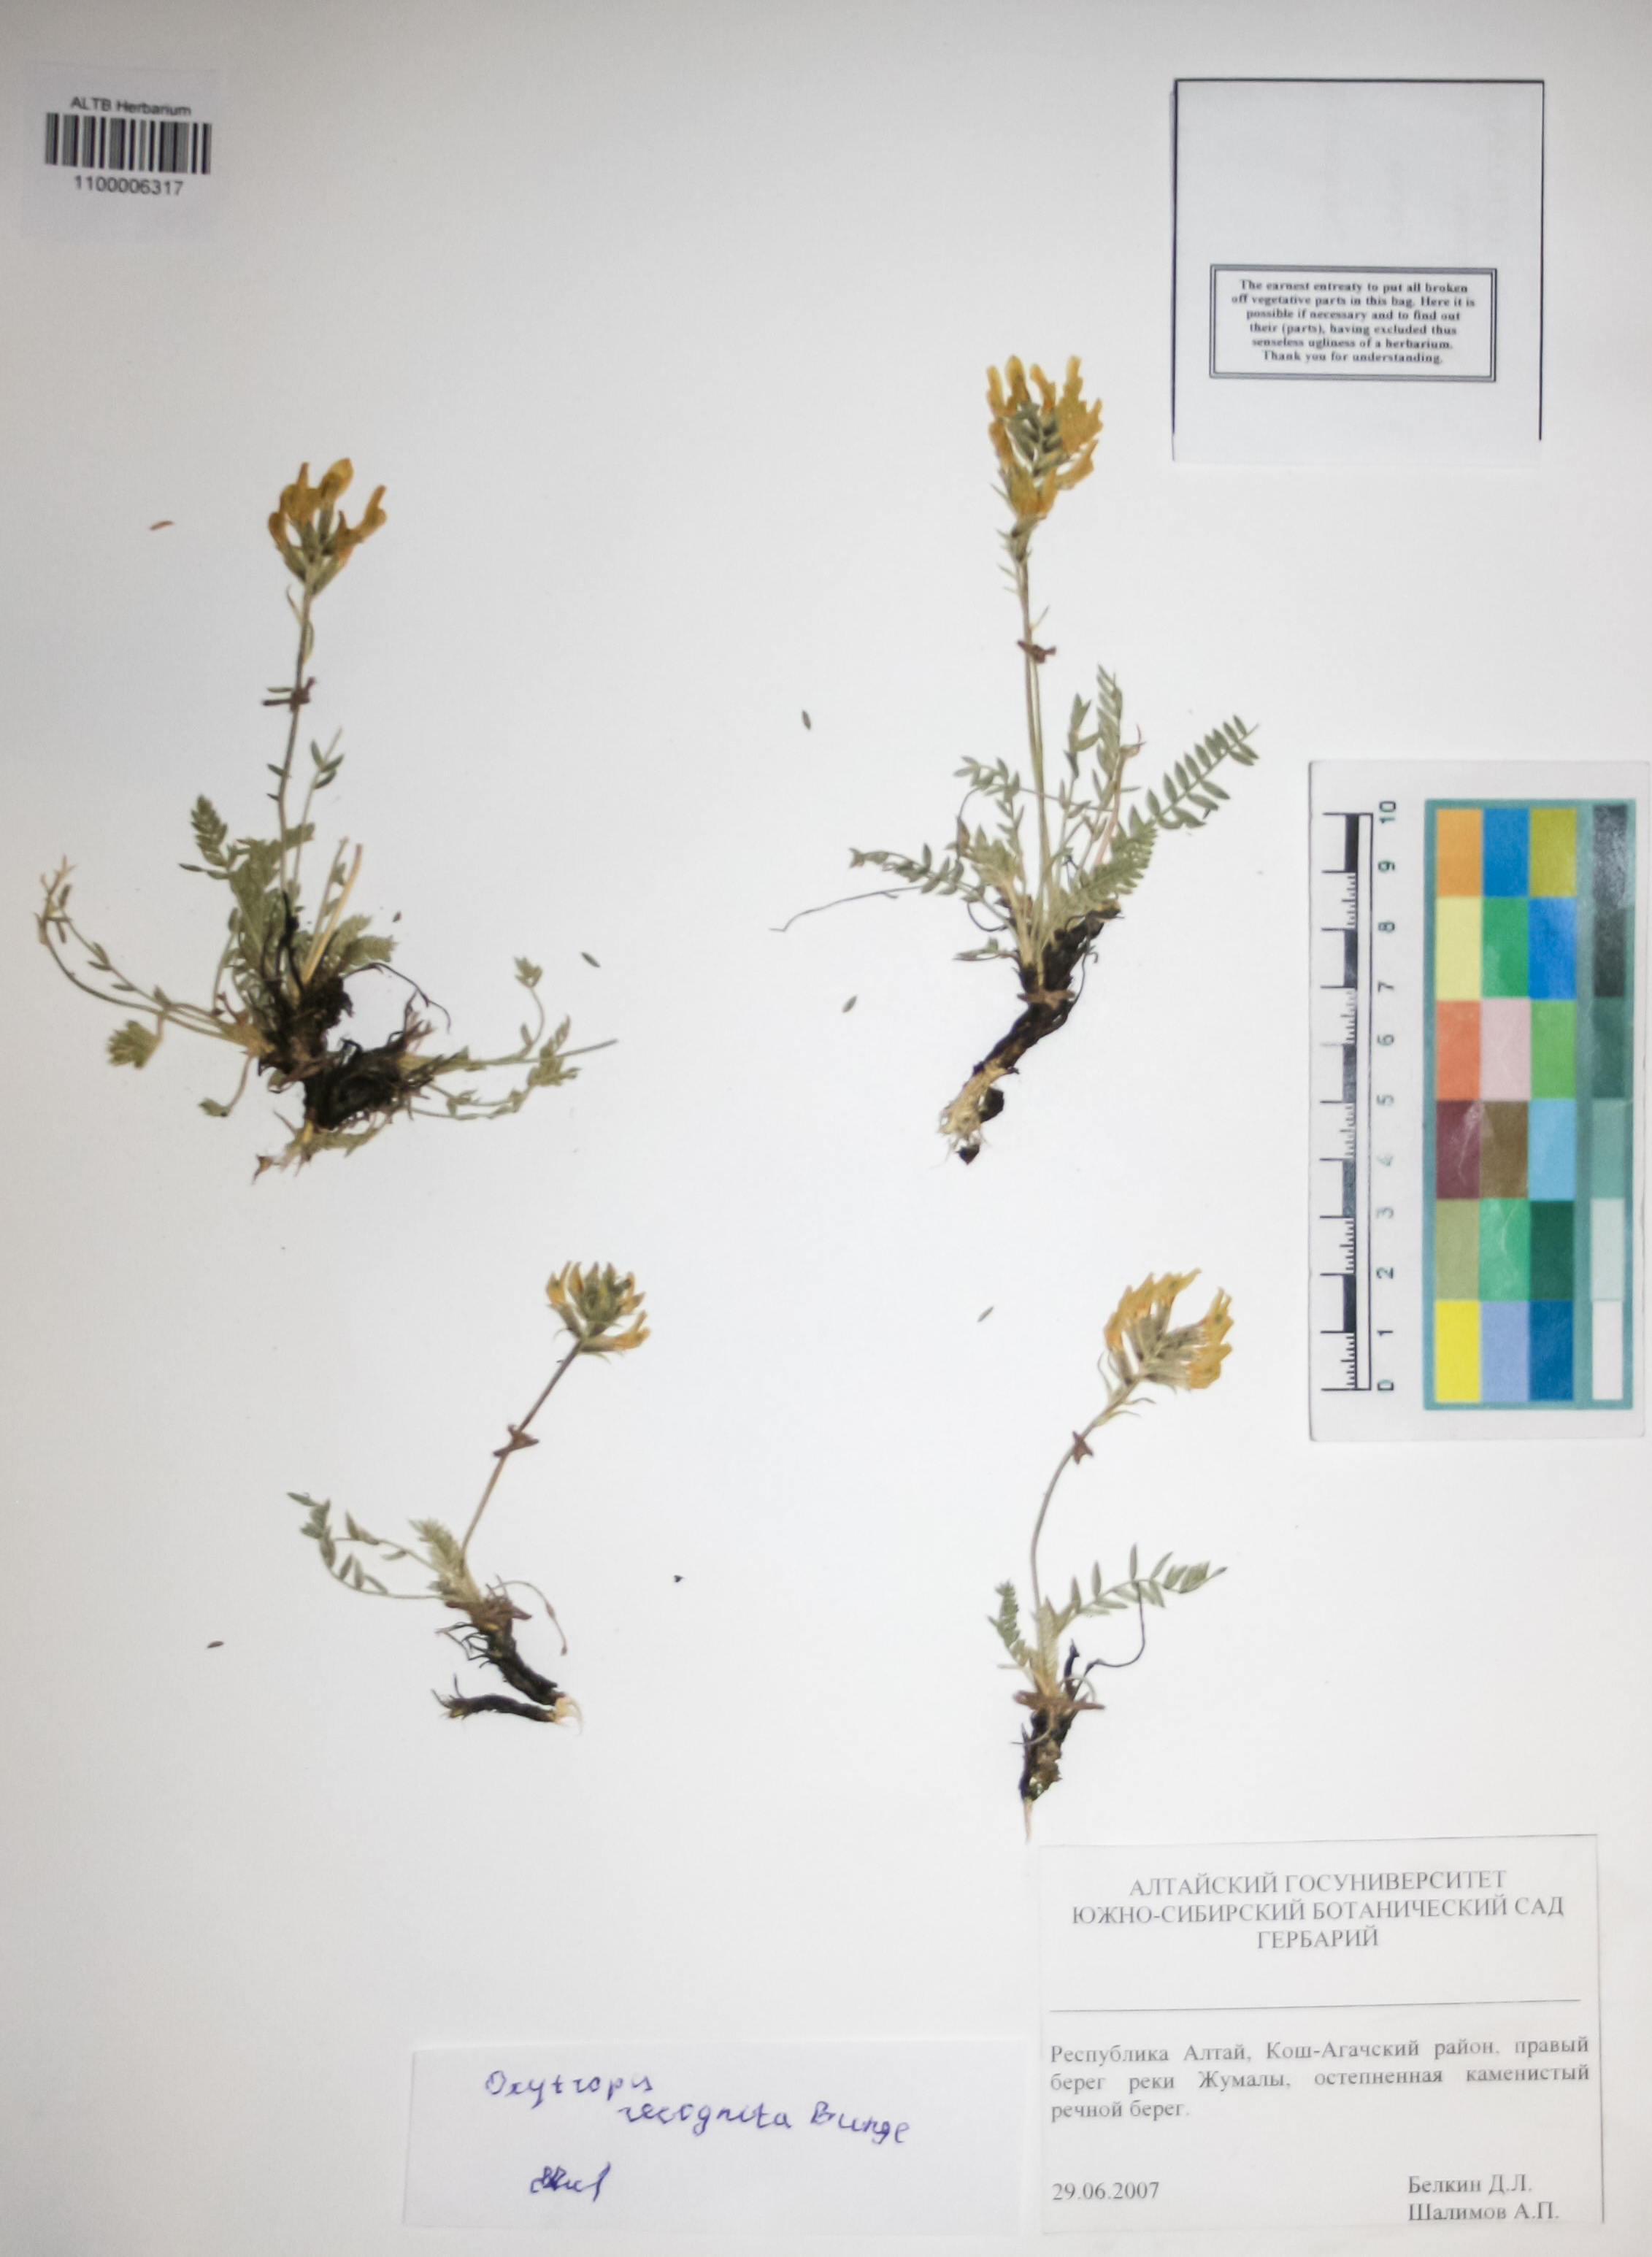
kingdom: Plantae
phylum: Tracheophyta
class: Magnoliopsida
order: Fabales
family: Fabaceae
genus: Oxytropis
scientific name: Oxytropis recognita
